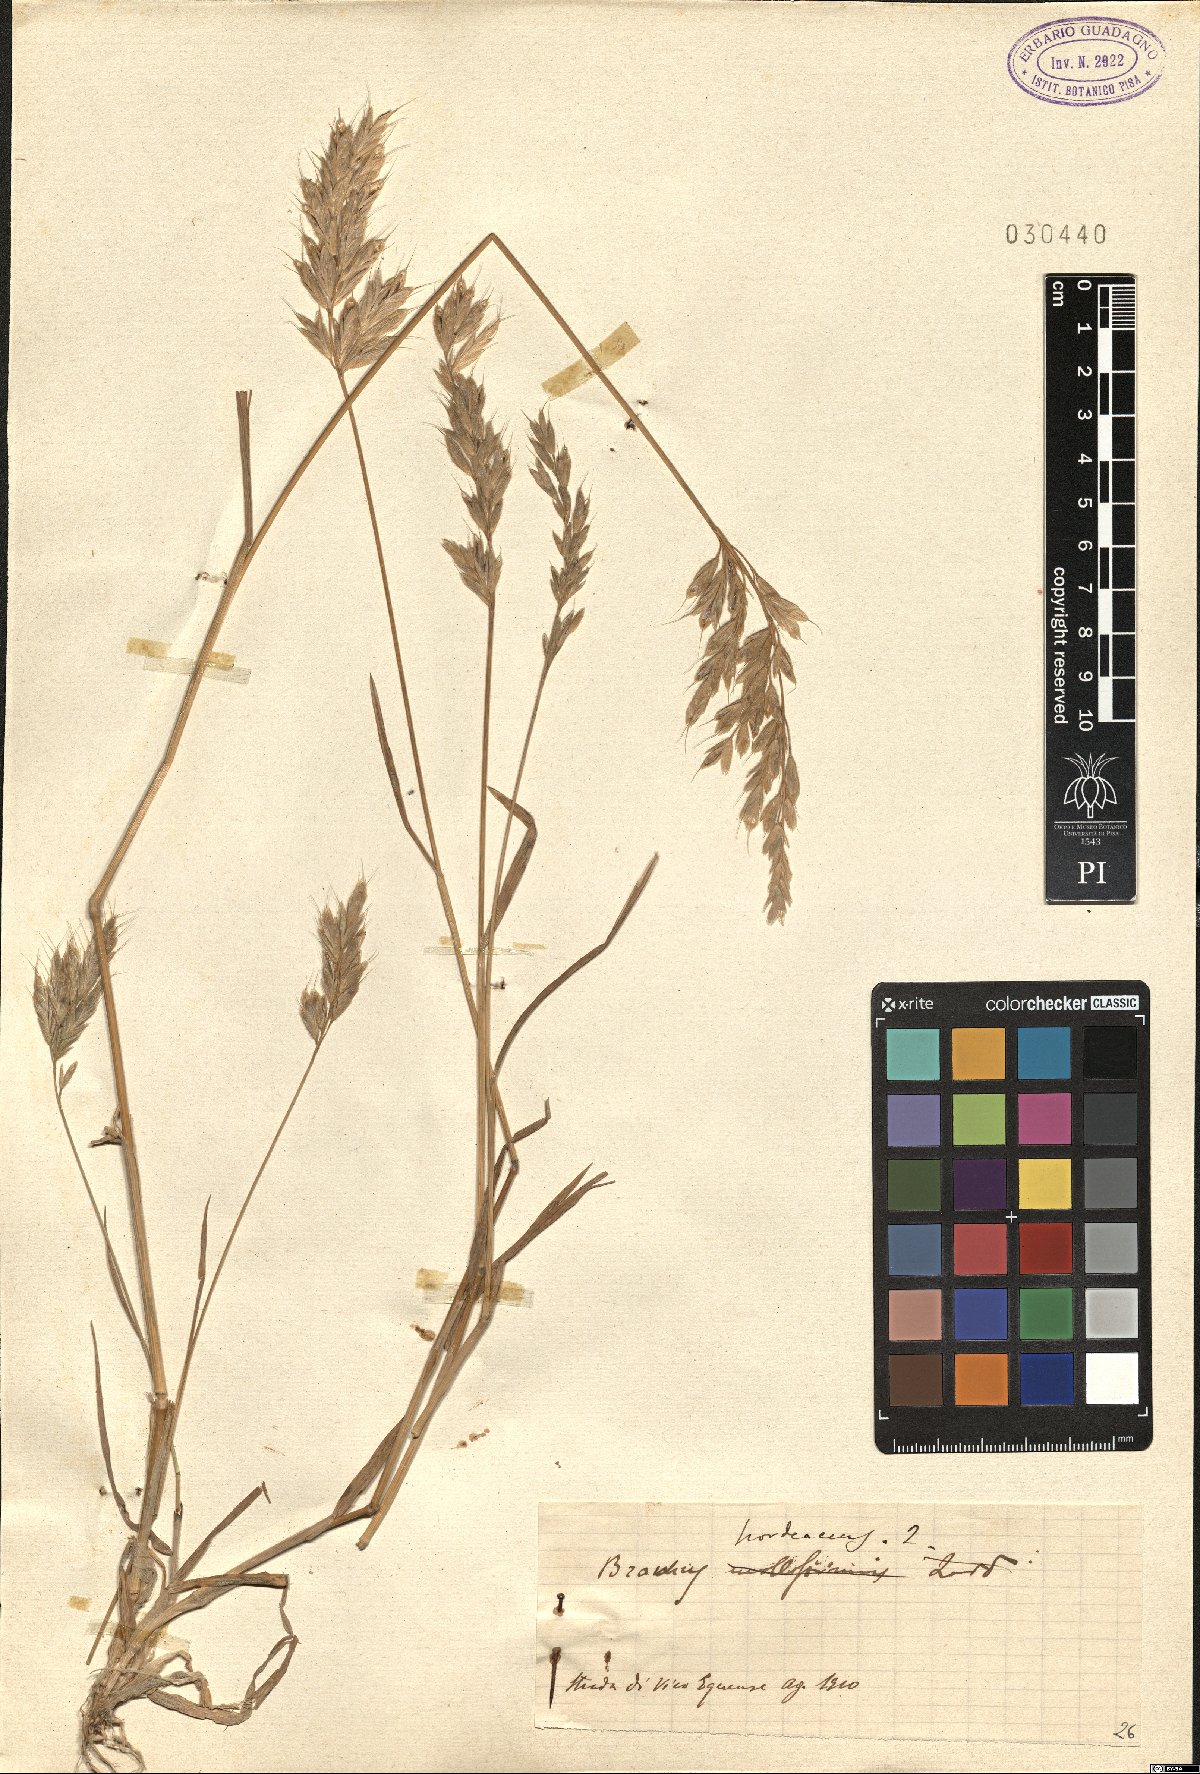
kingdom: Plantae
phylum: Tracheophyta
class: Liliopsida
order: Poales
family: Poaceae
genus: Bromus
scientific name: Bromus hordeaceus
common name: Soft brome
